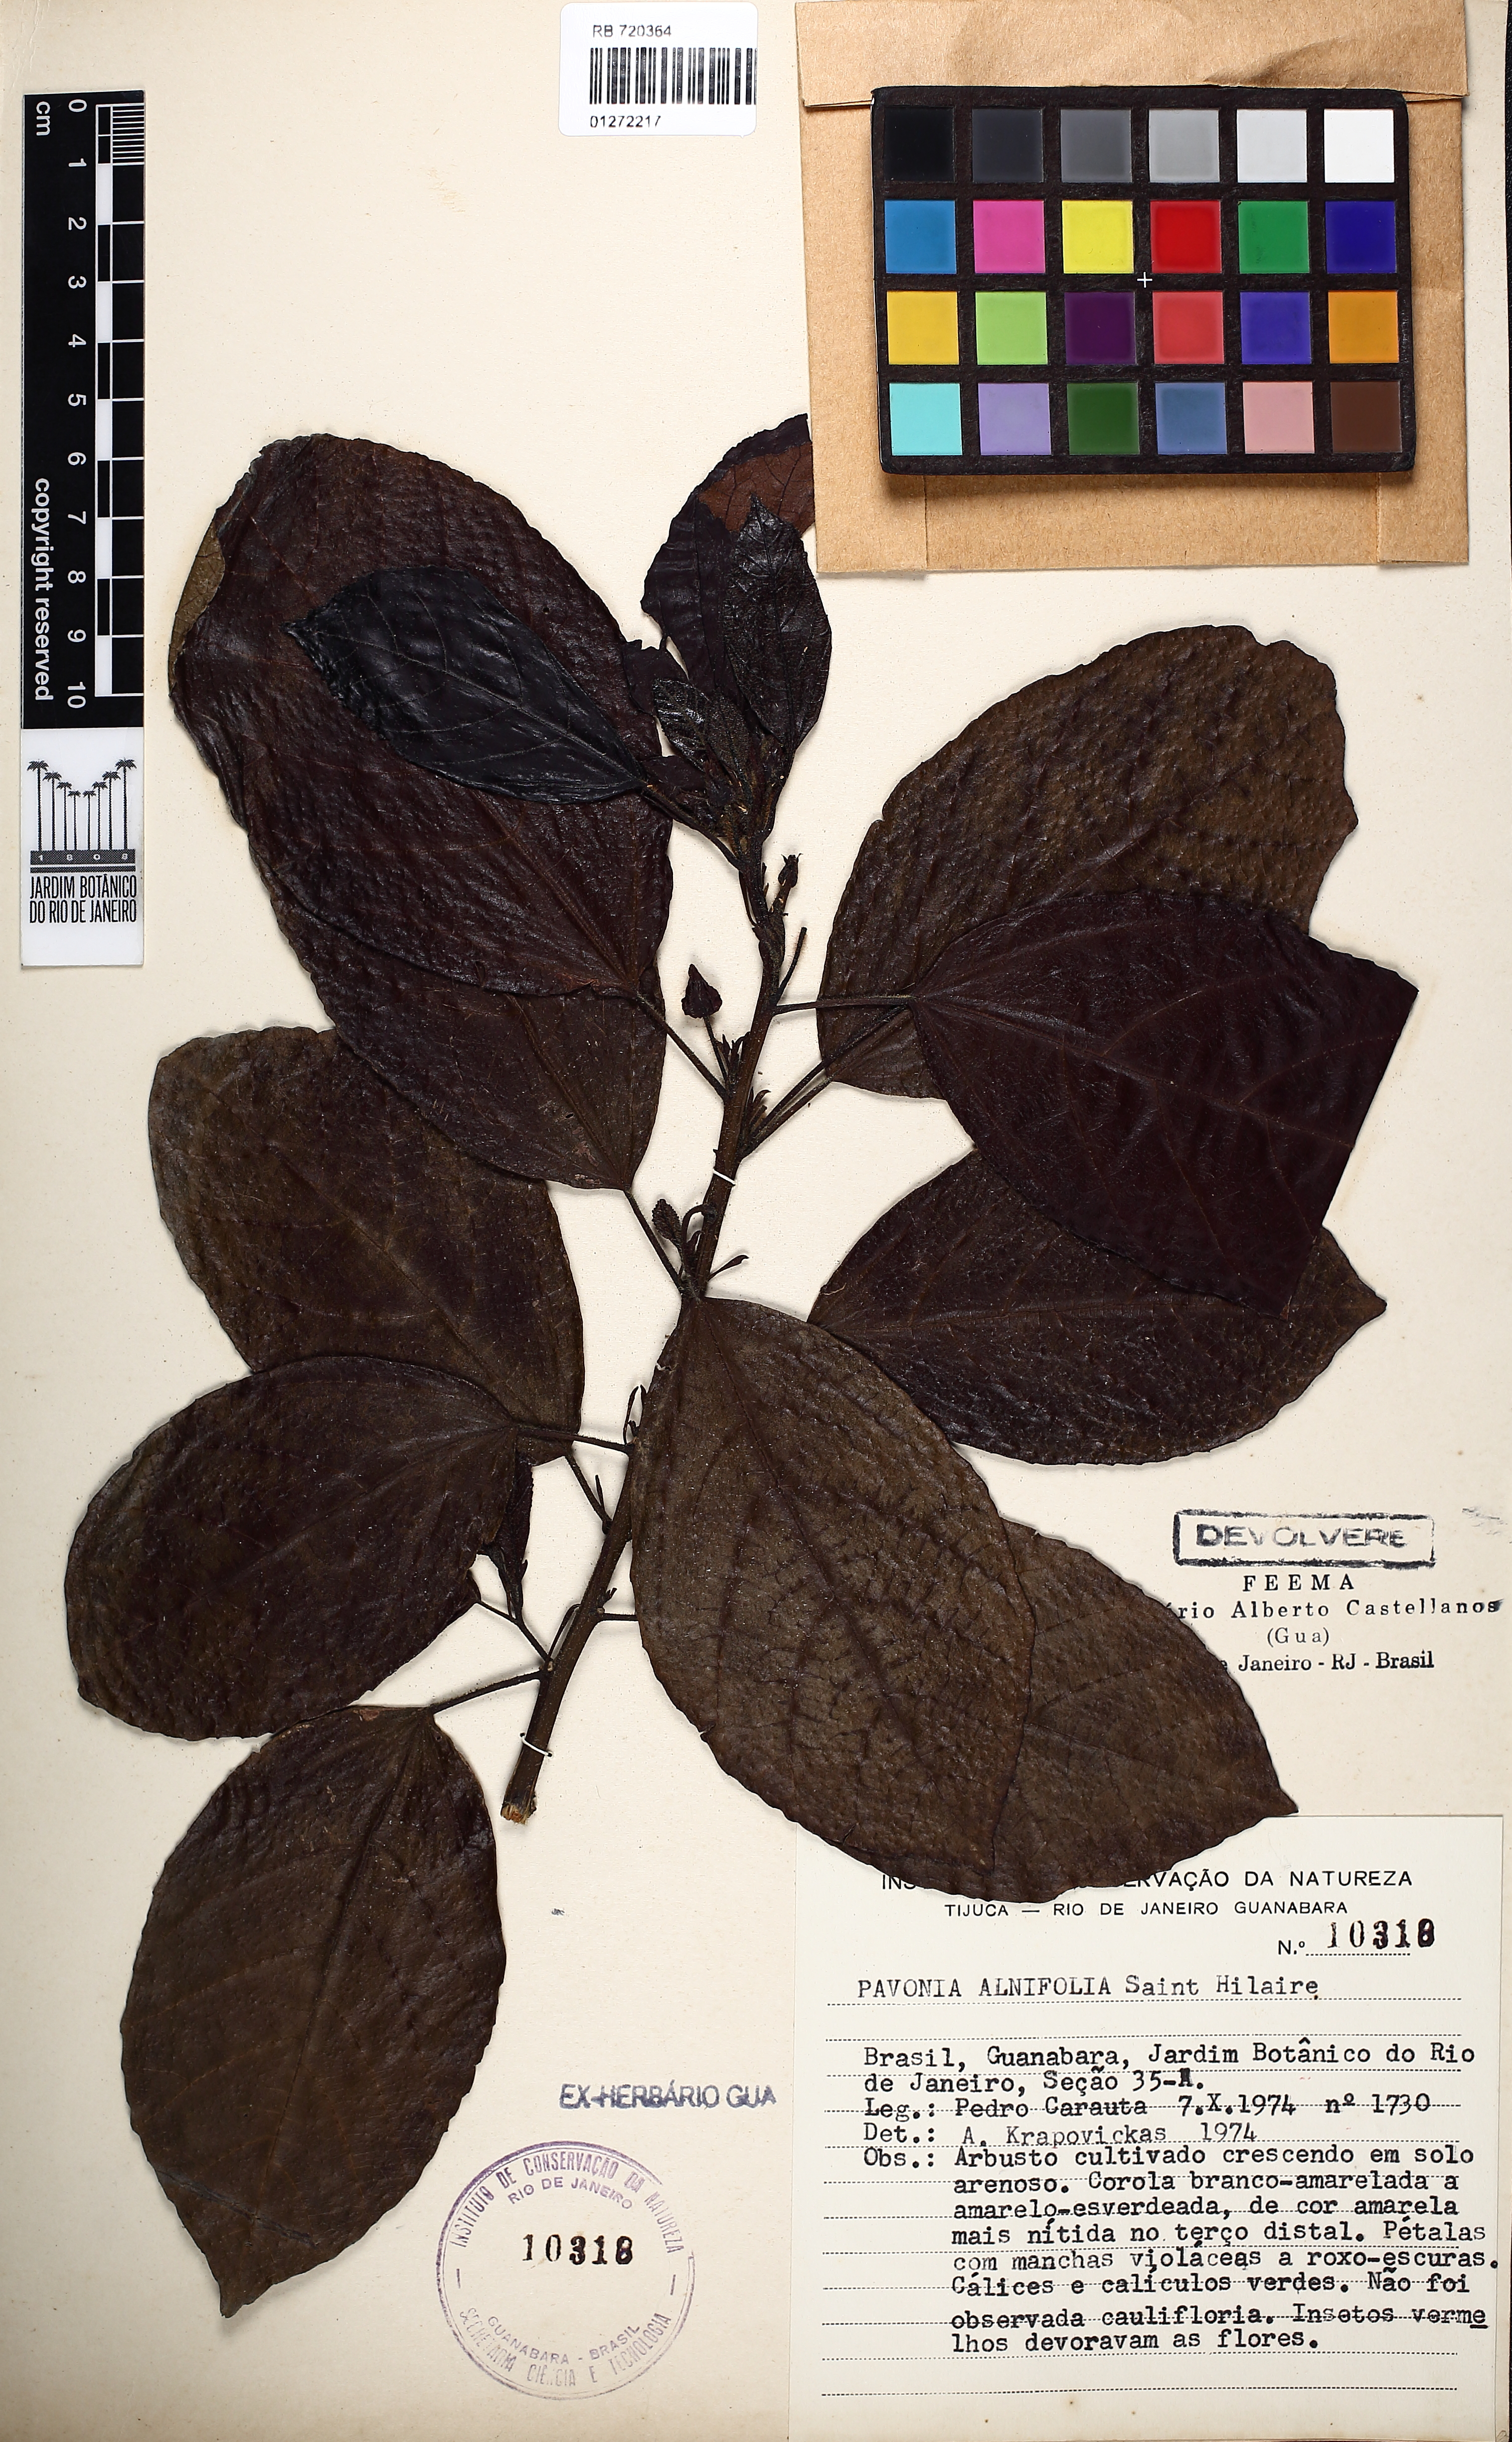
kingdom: Plantae
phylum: Tracheophyta
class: Magnoliopsida
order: Malvales
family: Malvaceae
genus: Pavonia
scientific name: Pavonia alnifolia
